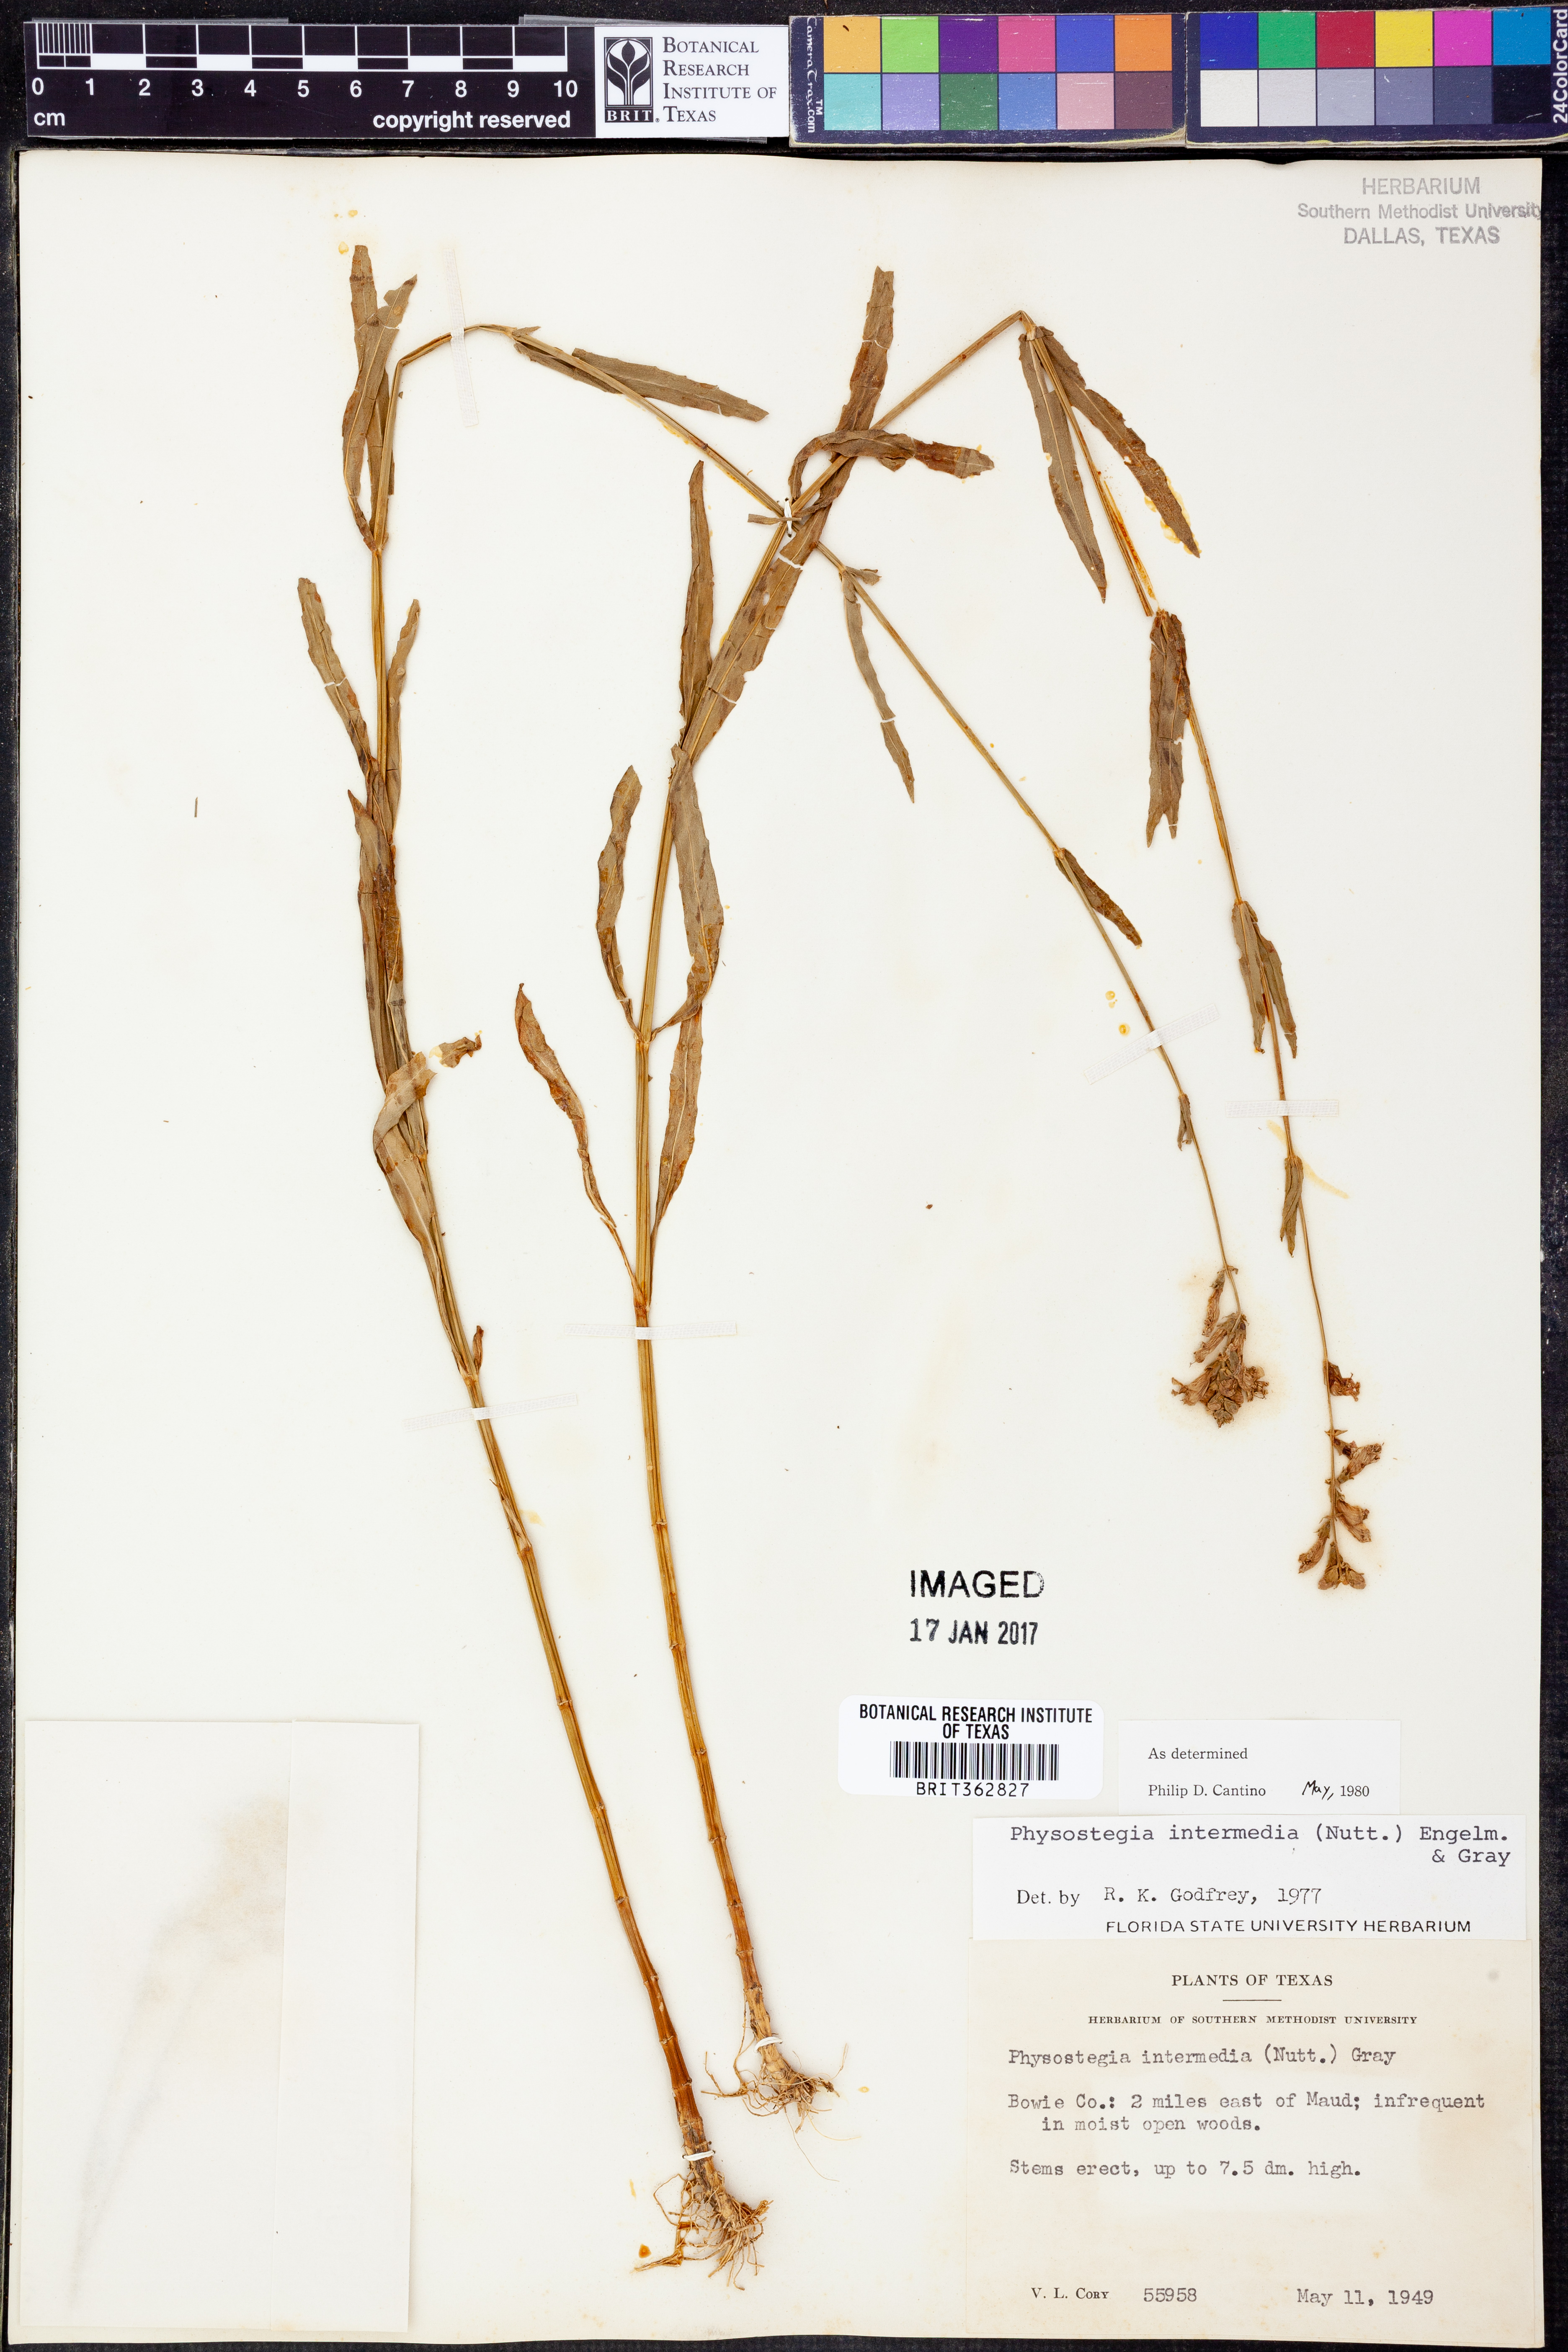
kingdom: Plantae
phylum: Tracheophyta
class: Magnoliopsida
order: Lamiales
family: Lamiaceae
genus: Physostegia
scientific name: Physostegia intermedia
